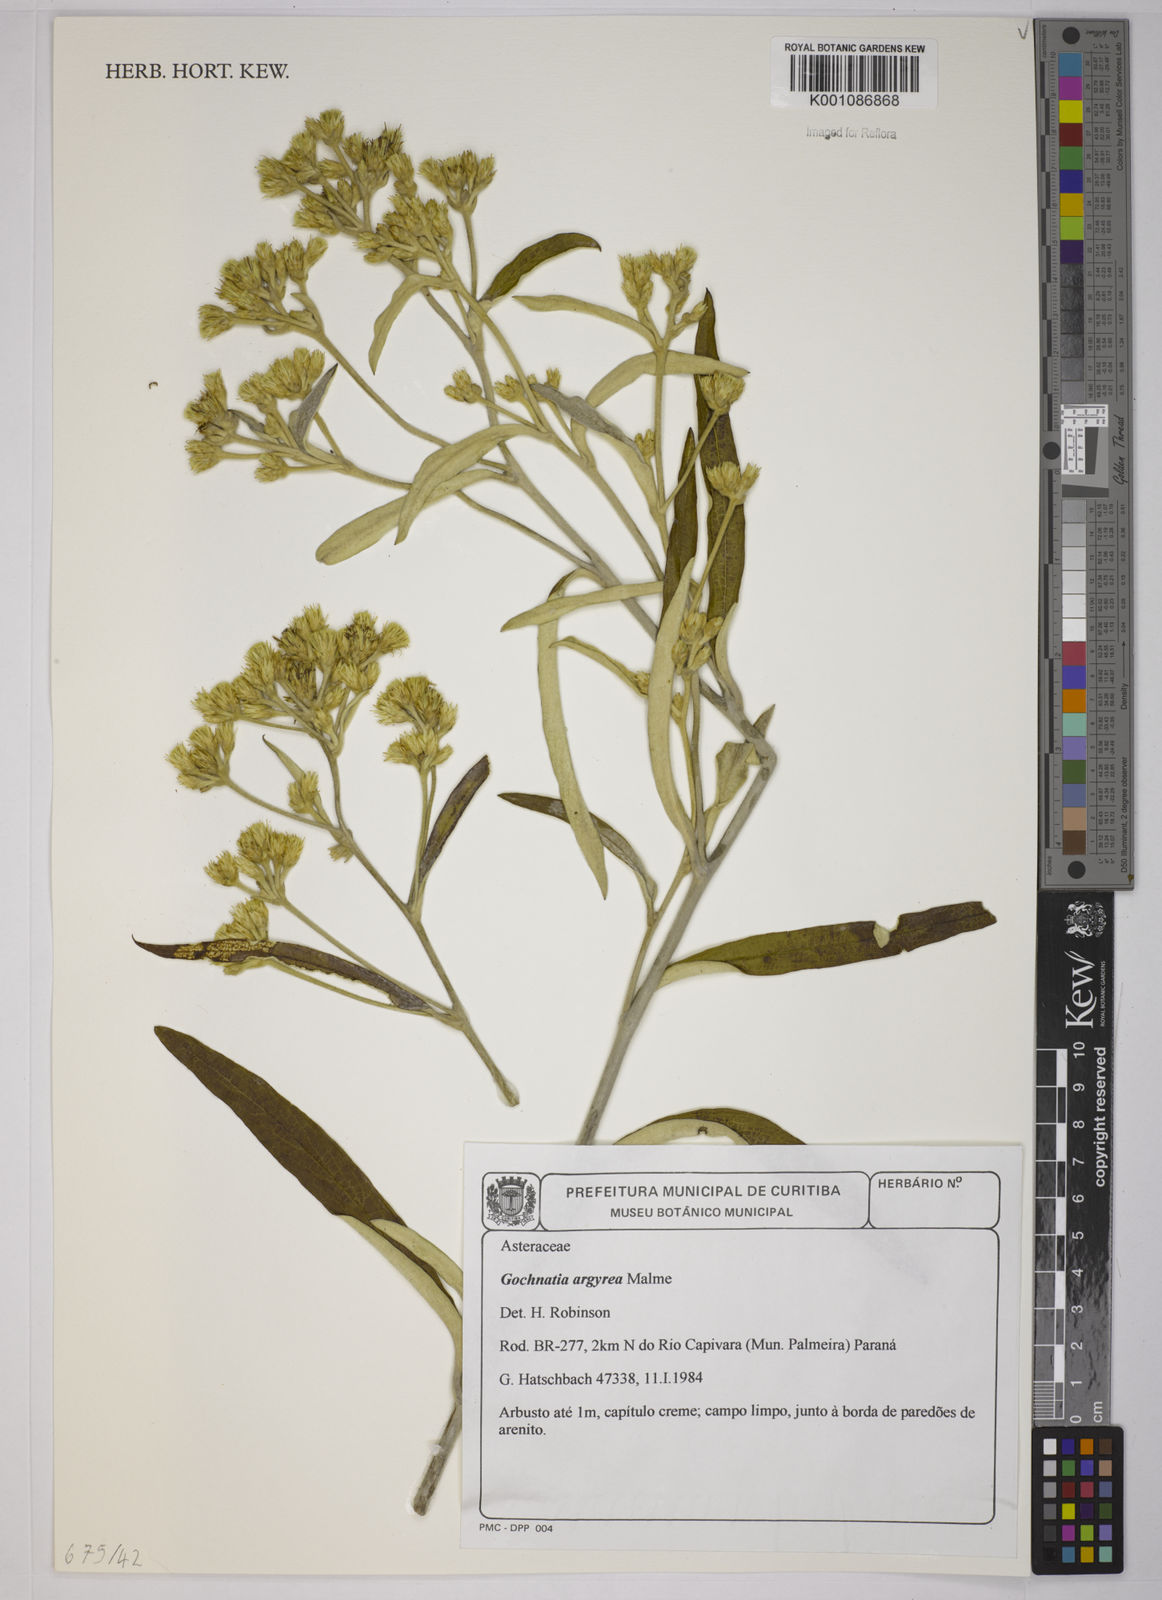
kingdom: Plantae
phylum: Tracheophyta
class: Magnoliopsida
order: Asterales
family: Asteraceae
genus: Gochnatia
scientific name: Gochnatia
